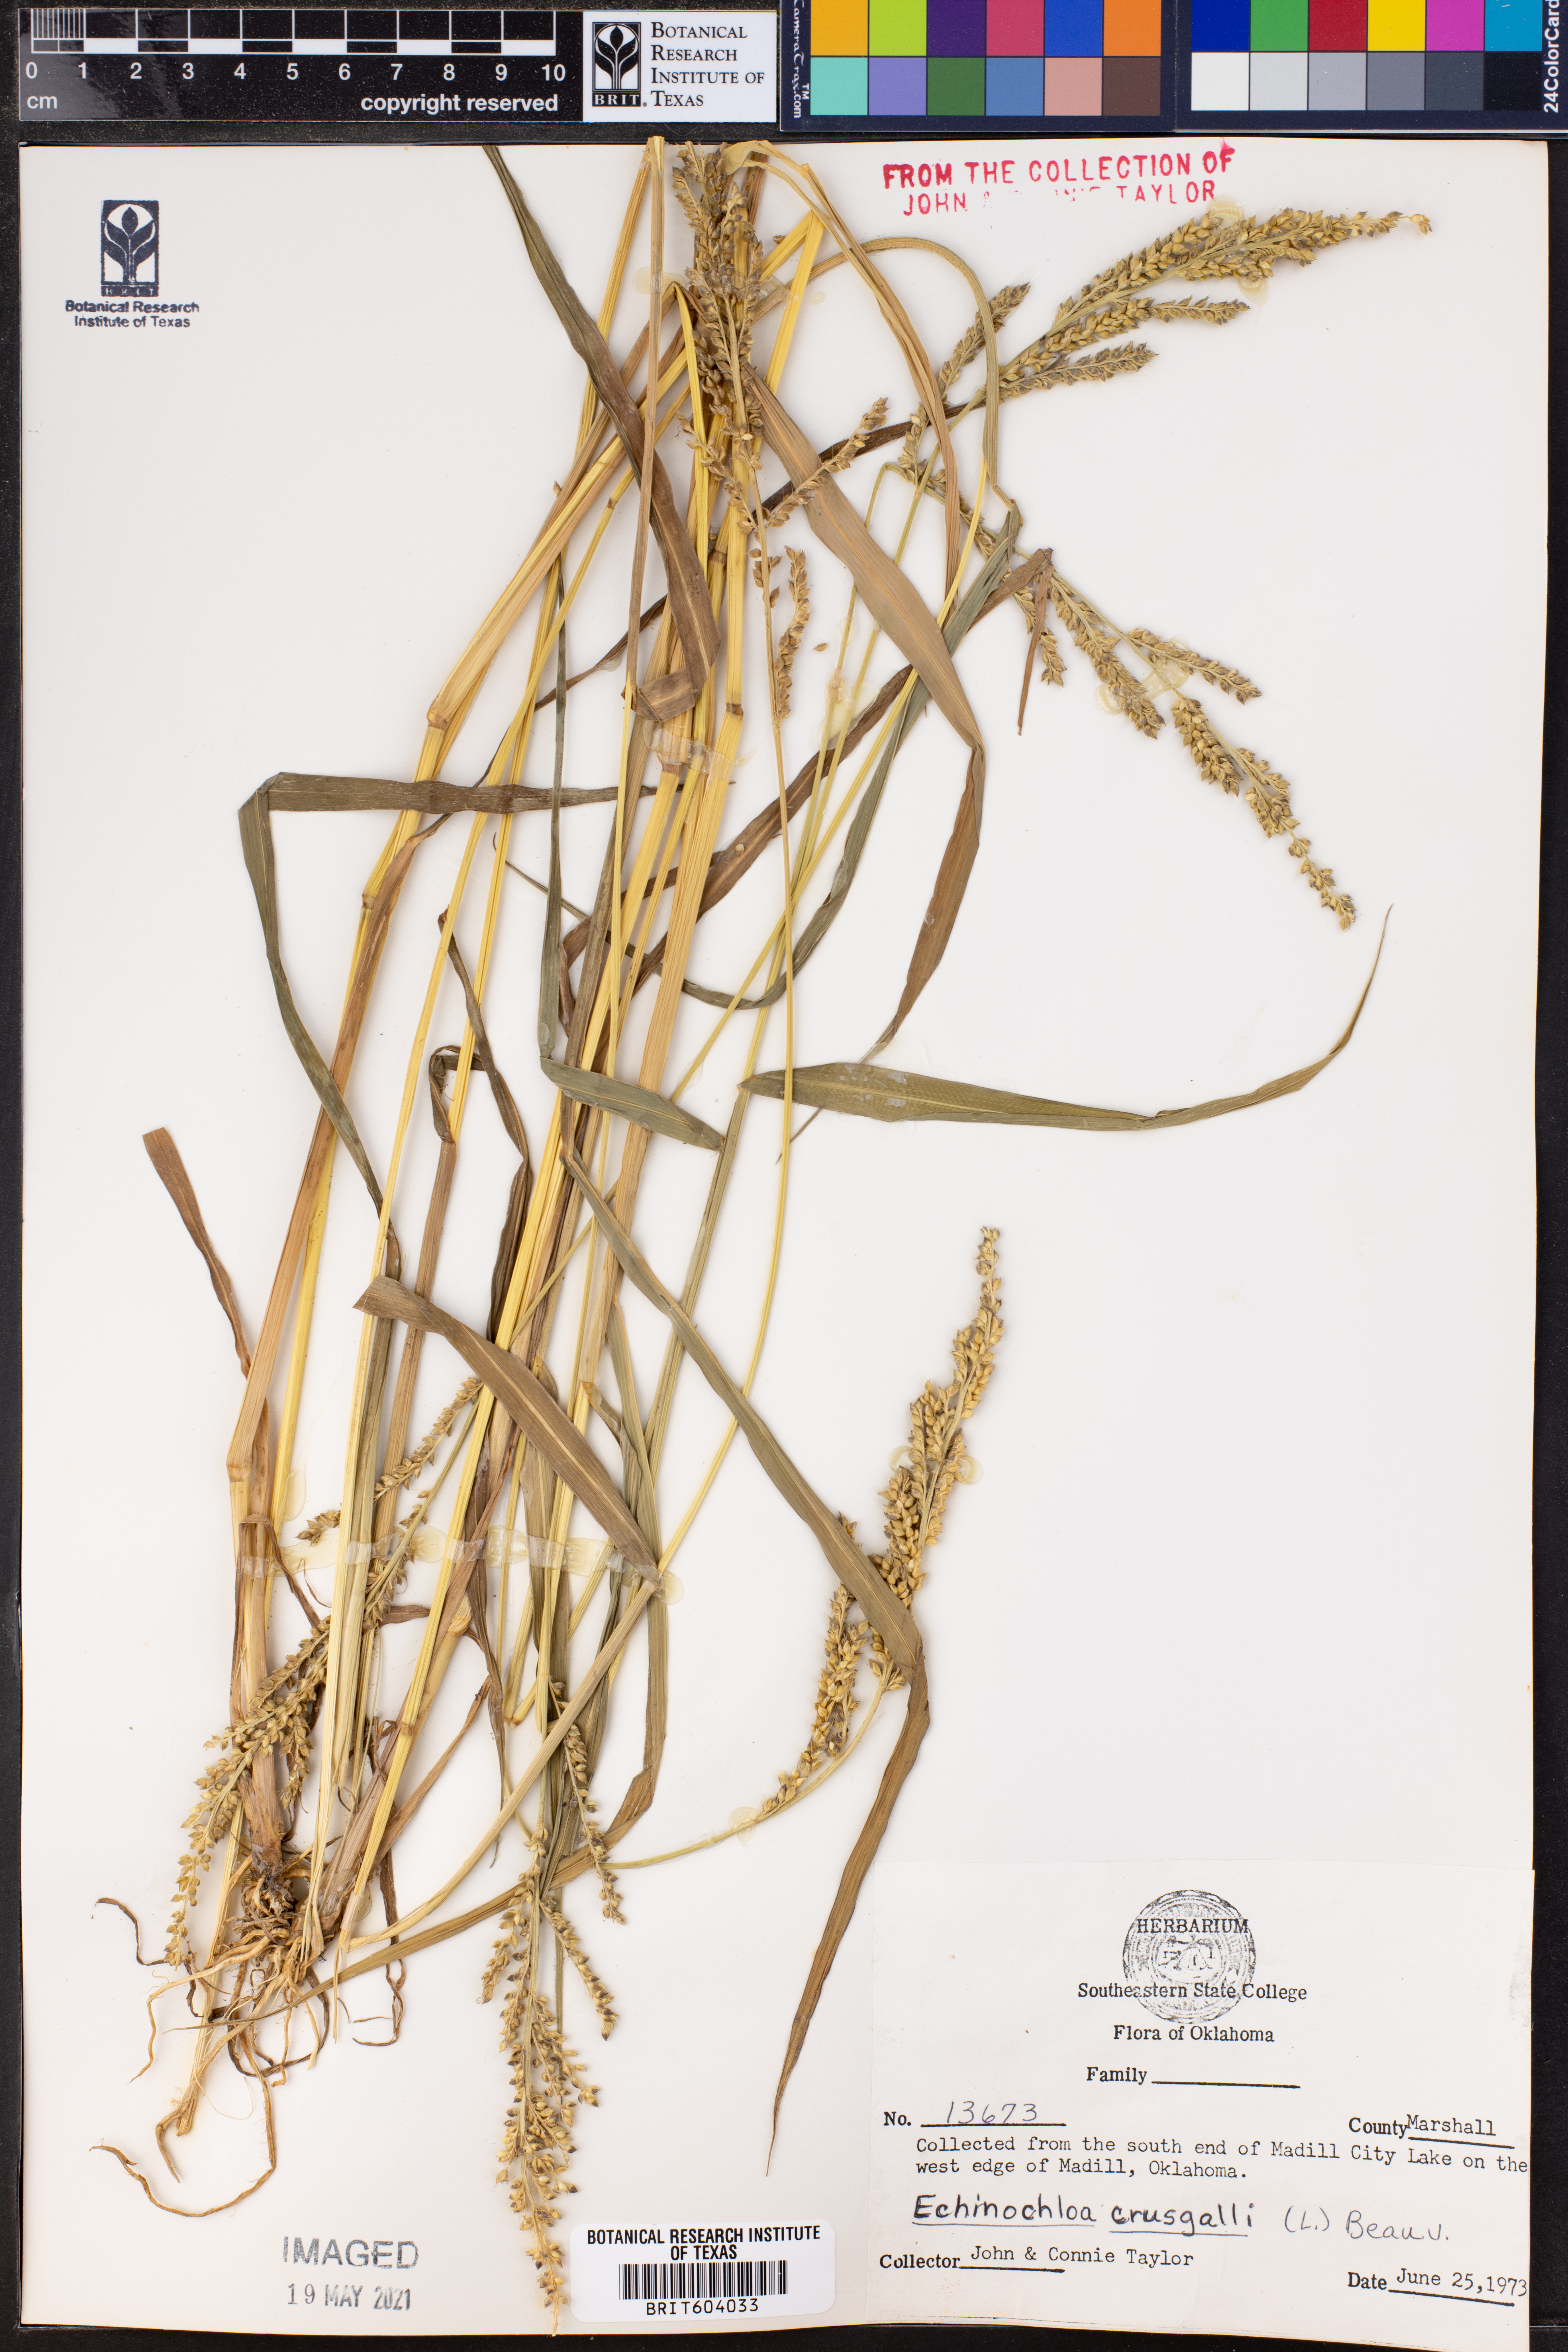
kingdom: Plantae
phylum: Tracheophyta
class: Liliopsida
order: Poales
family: Poaceae
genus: Echinochloa
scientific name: Echinochloa
